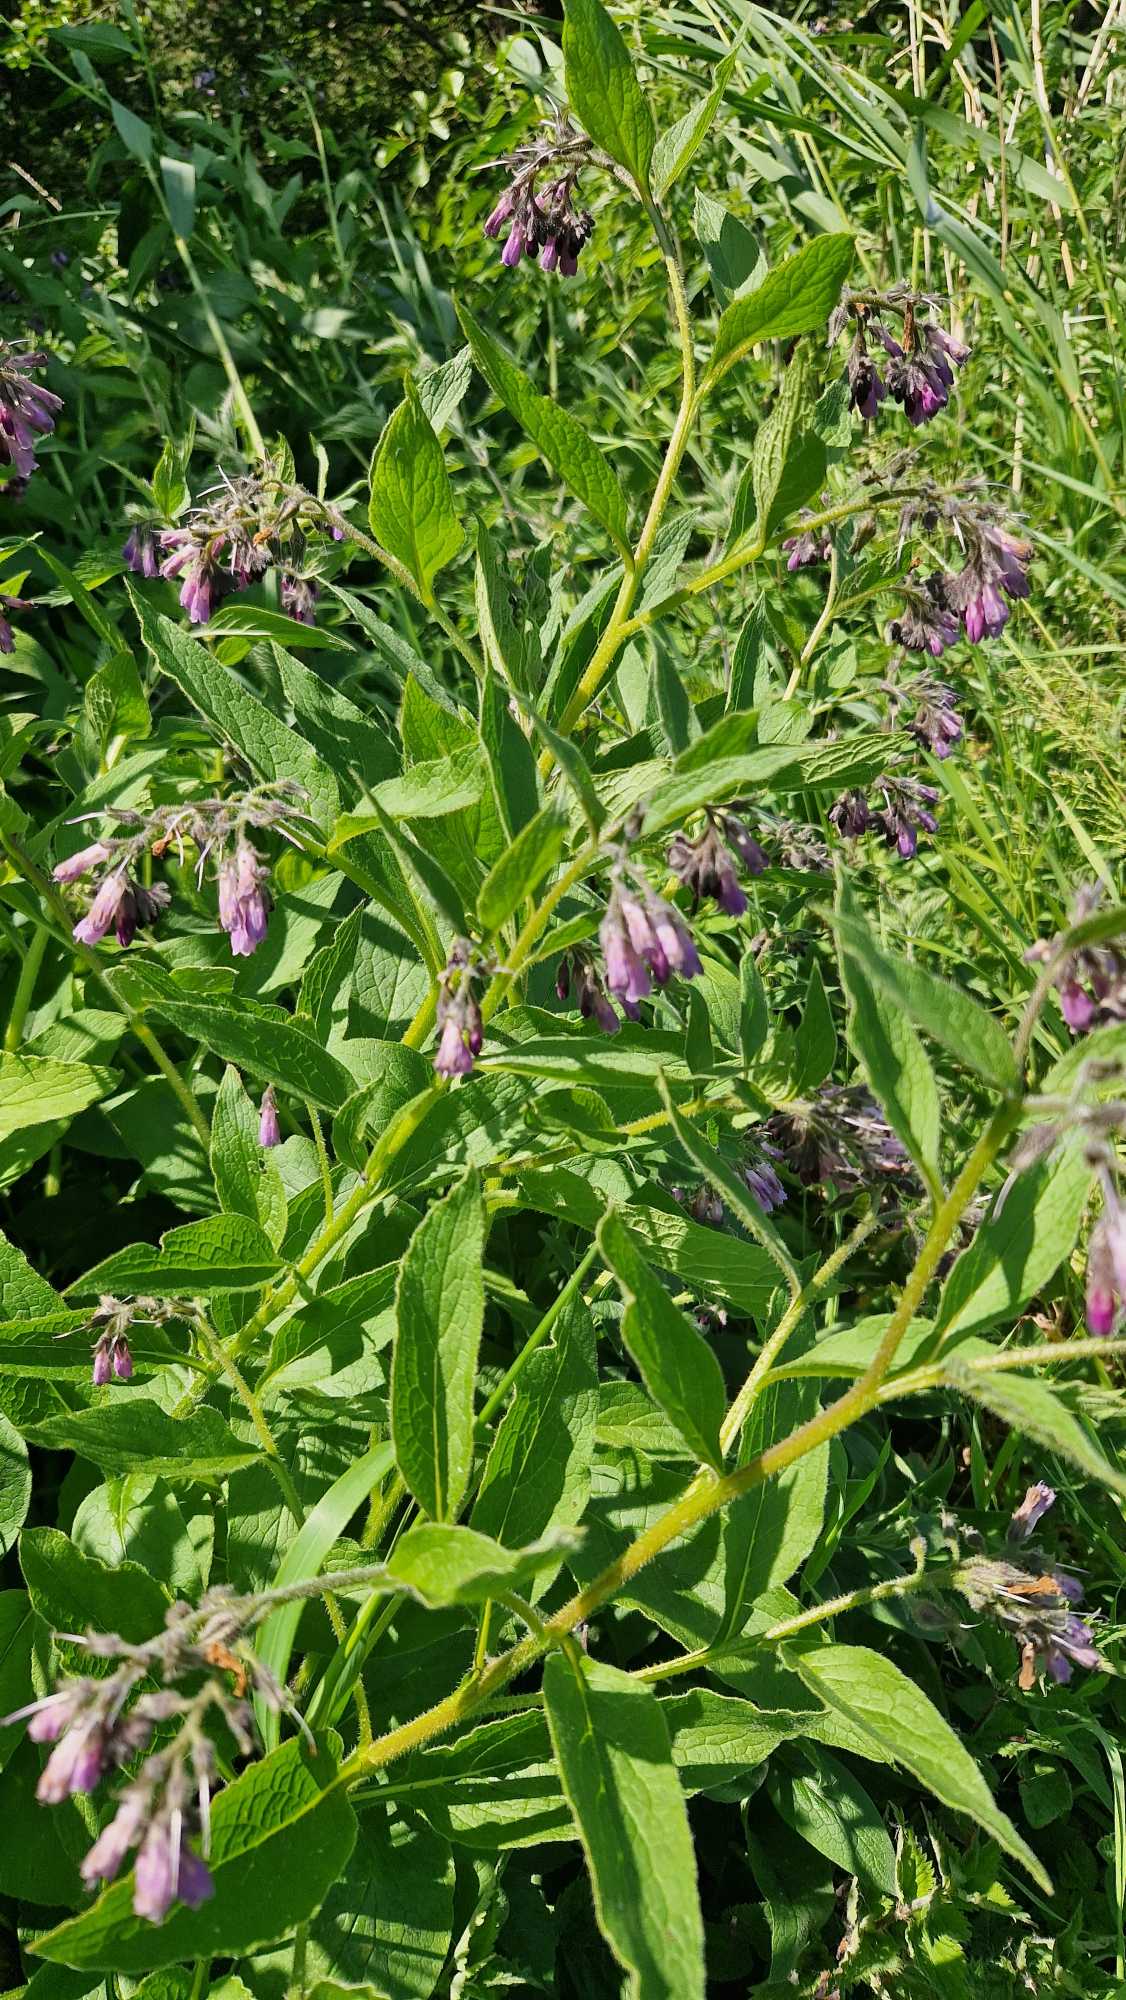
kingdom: Plantae
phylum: Tracheophyta
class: Magnoliopsida
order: Boraginales
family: Boraginaceae
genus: Symphytum
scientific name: Symphytum uplandicum
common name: Foder-kulsukker
